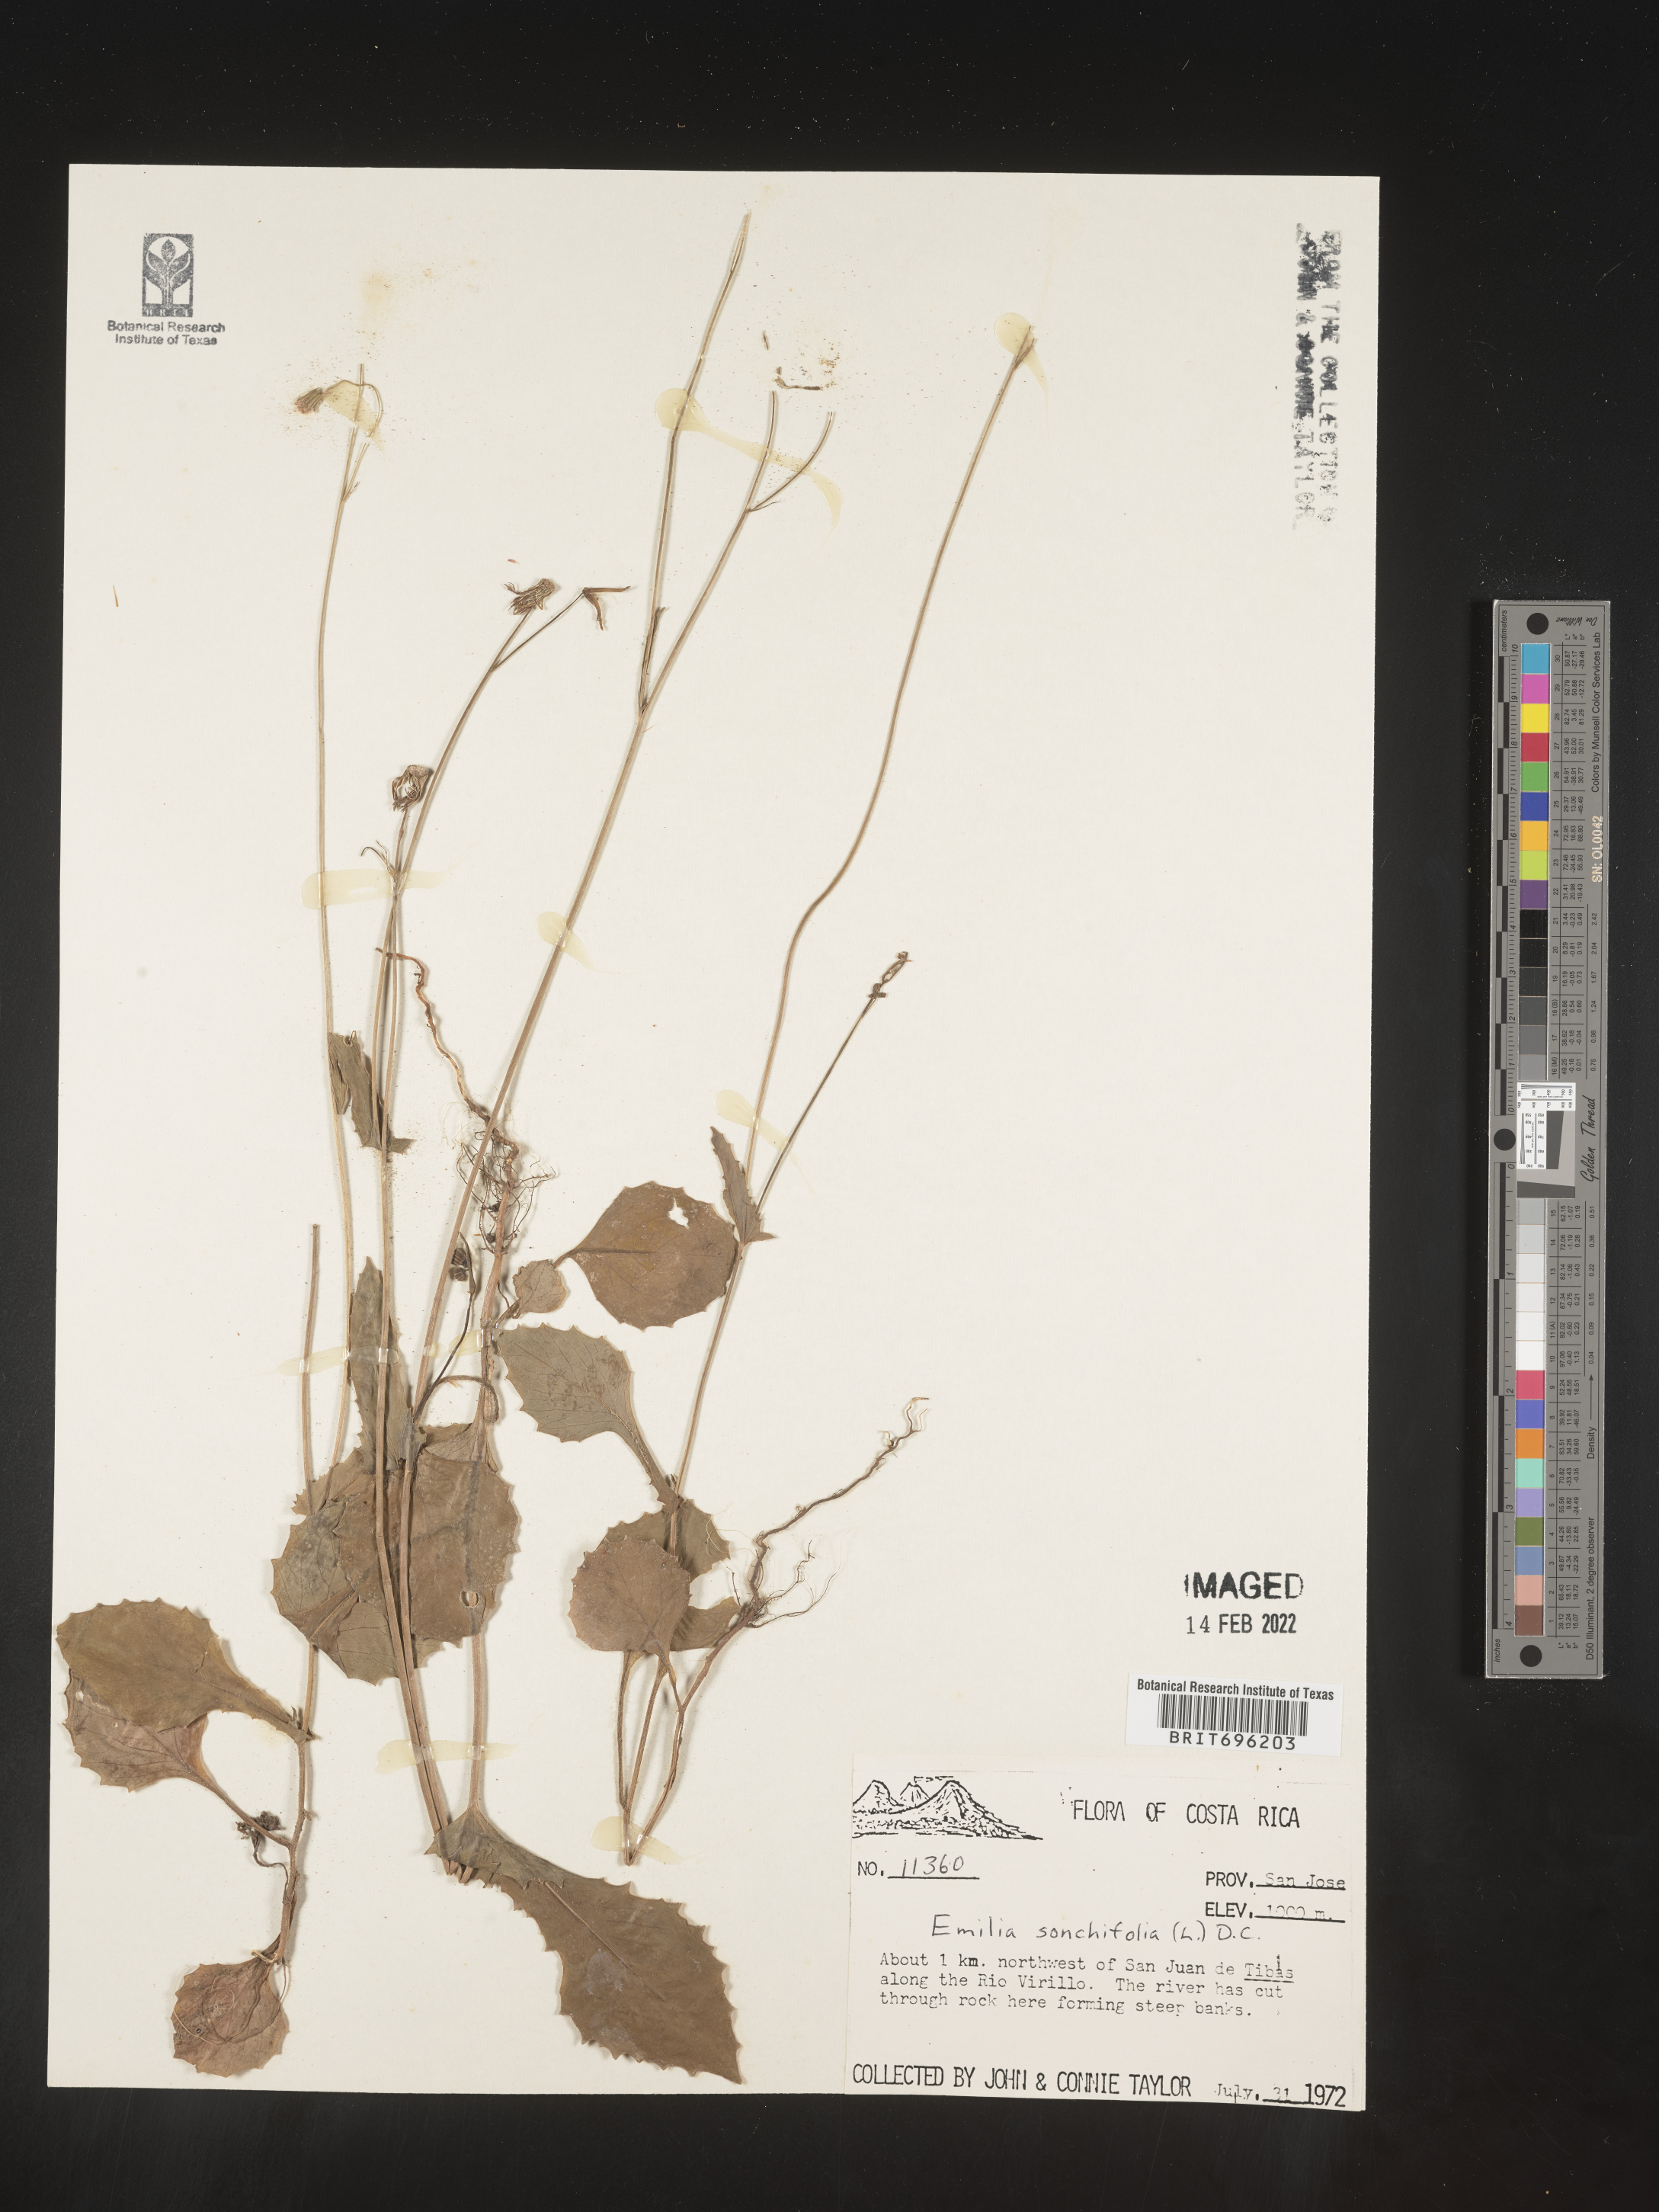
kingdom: Plantae
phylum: Tracheophyta
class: Magnoliopsida
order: Asterales
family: Asteraceae
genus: Emilia
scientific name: Emilia
